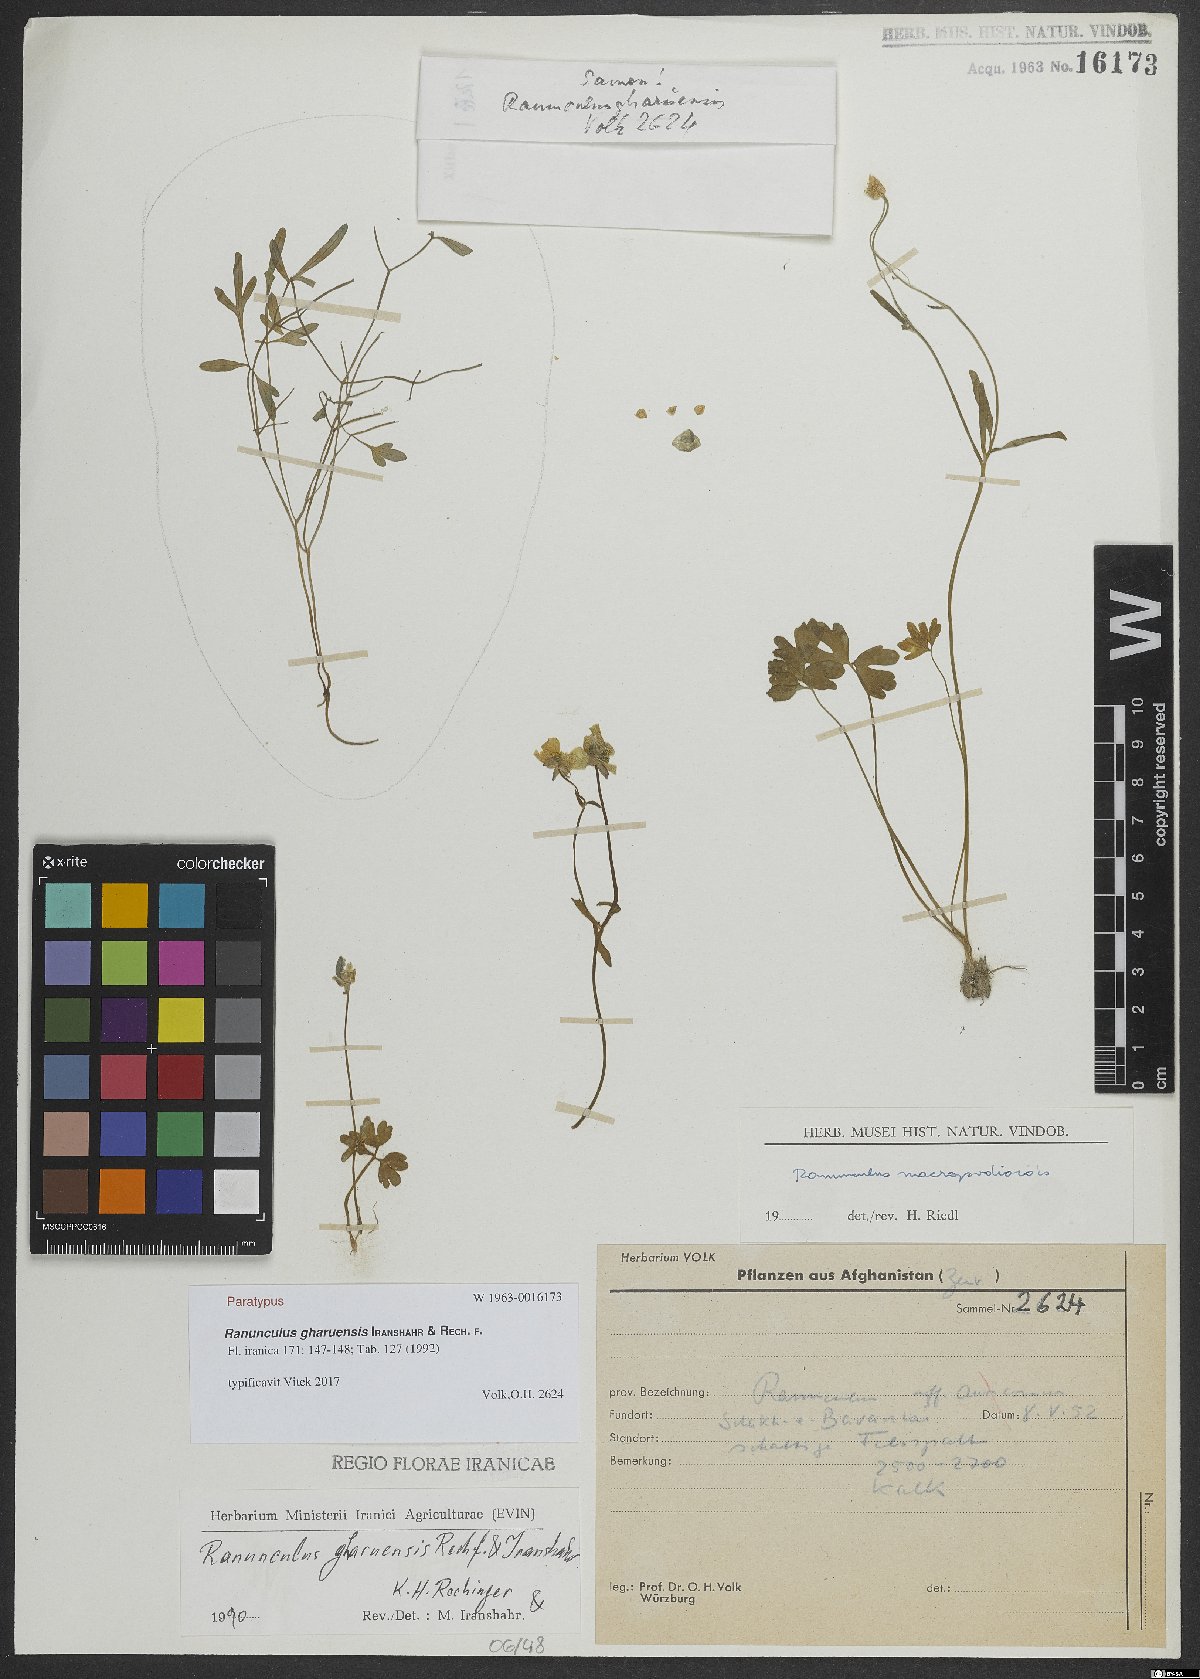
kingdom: Plantae
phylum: Tracheophyta
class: Magnoliopsida
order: Ranunculales
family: Ranunculaceae
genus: Ranunculus
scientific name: Ranunculus gharuensis
